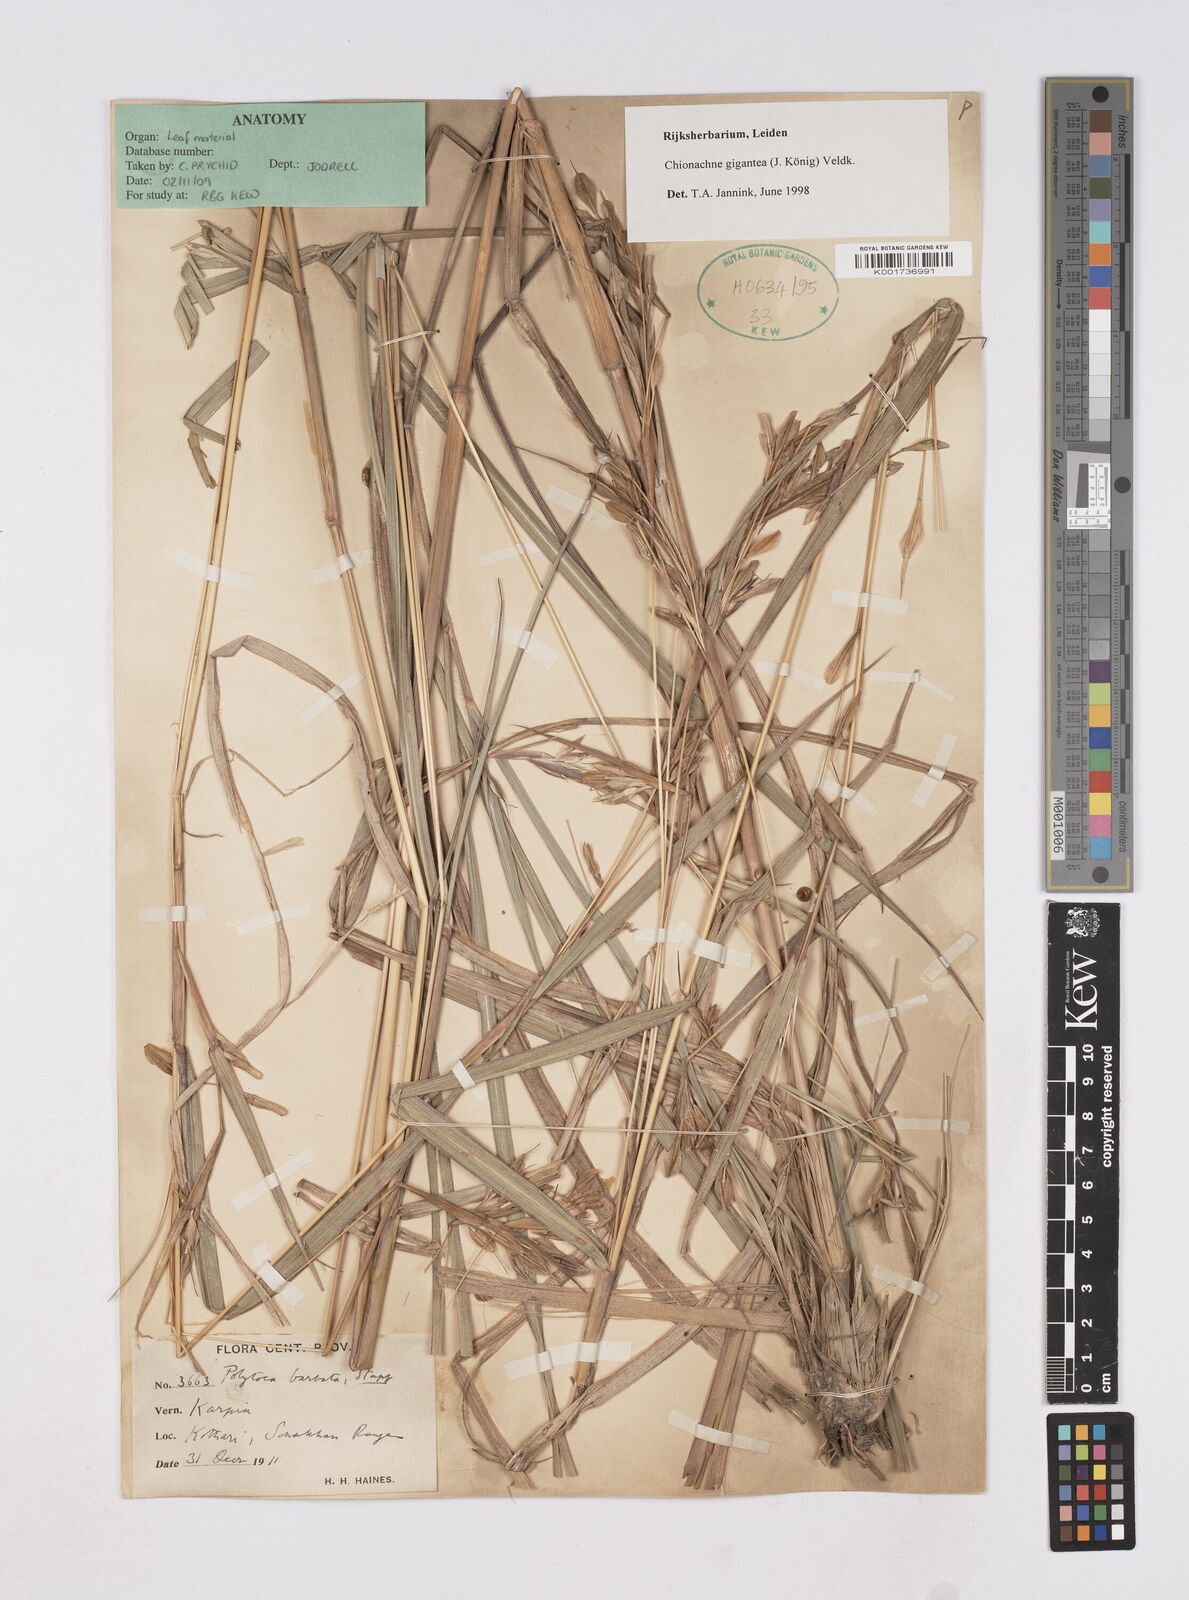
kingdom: Plantae
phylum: Tracheophyta
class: Liliopsida
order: Poales
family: Poaceae
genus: Polytoca
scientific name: Polytoca gigantea
